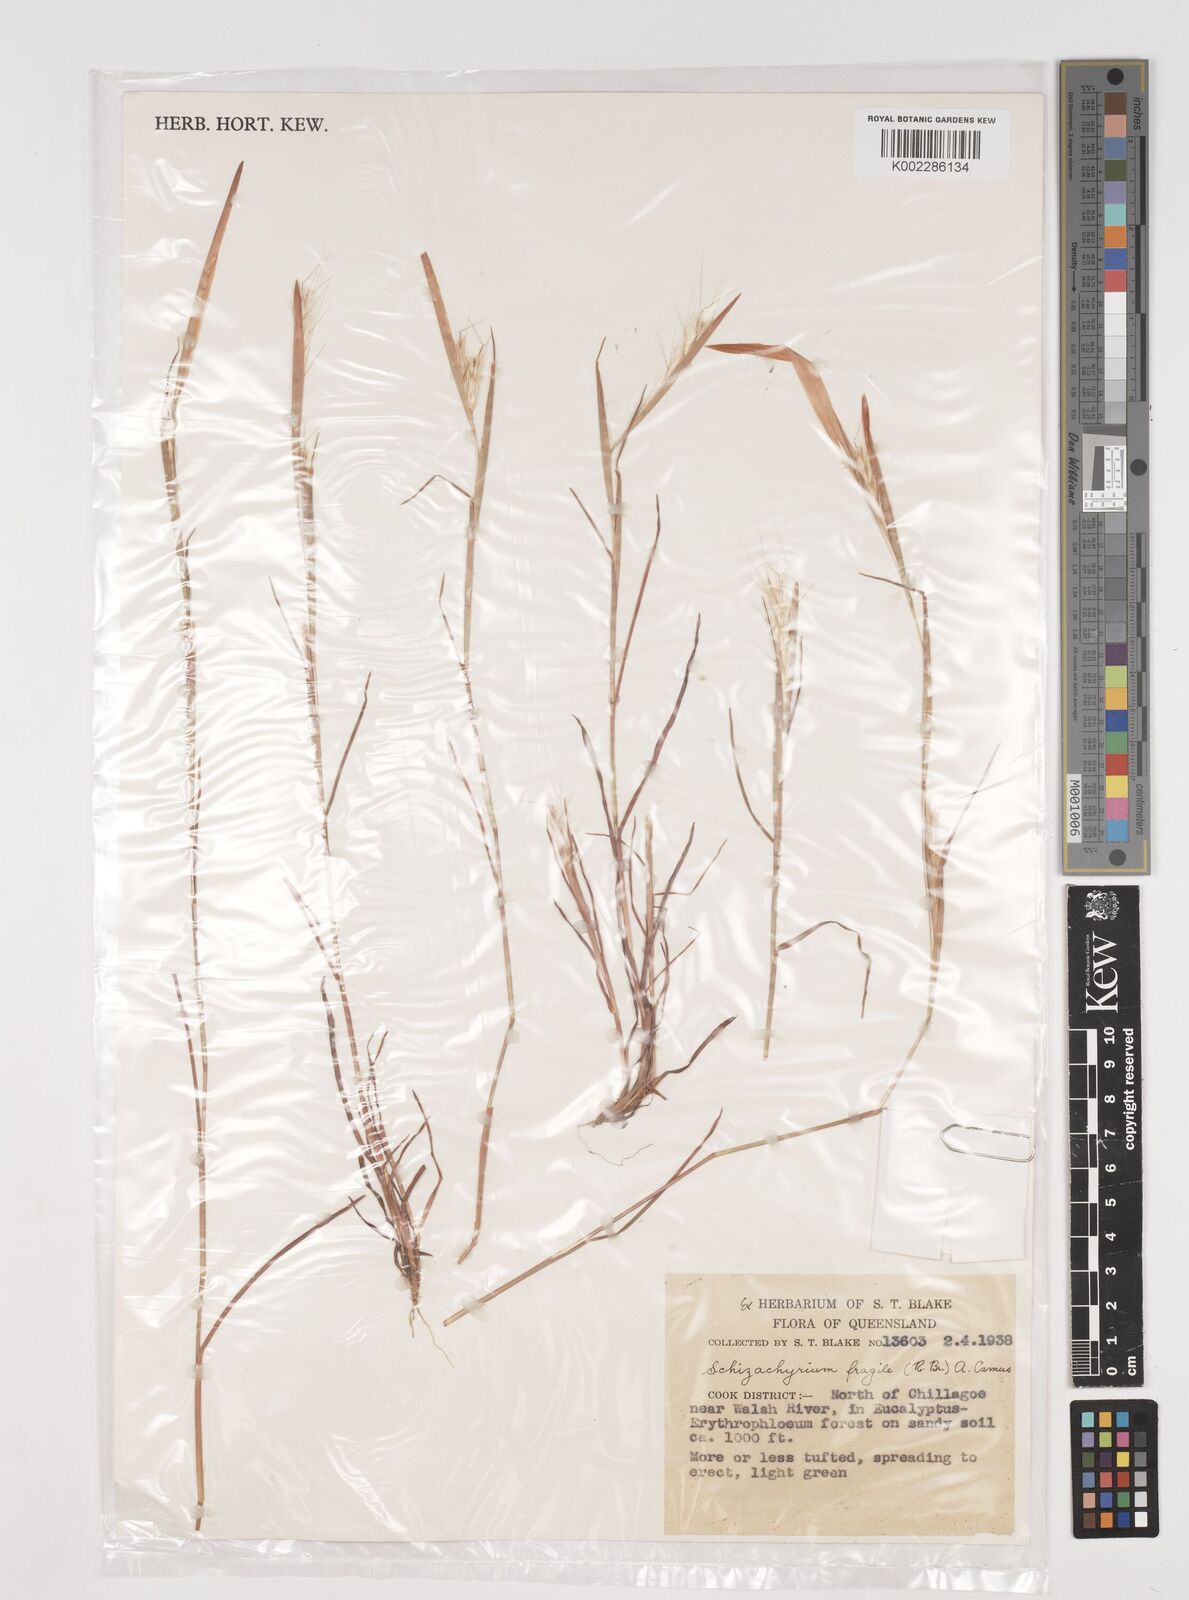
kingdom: Plantae
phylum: Tracheophyta
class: Liliopsida
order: Poales
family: Poaceae
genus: Schizachyrium
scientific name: Schizachyrium fragile
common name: Red spathe grass
